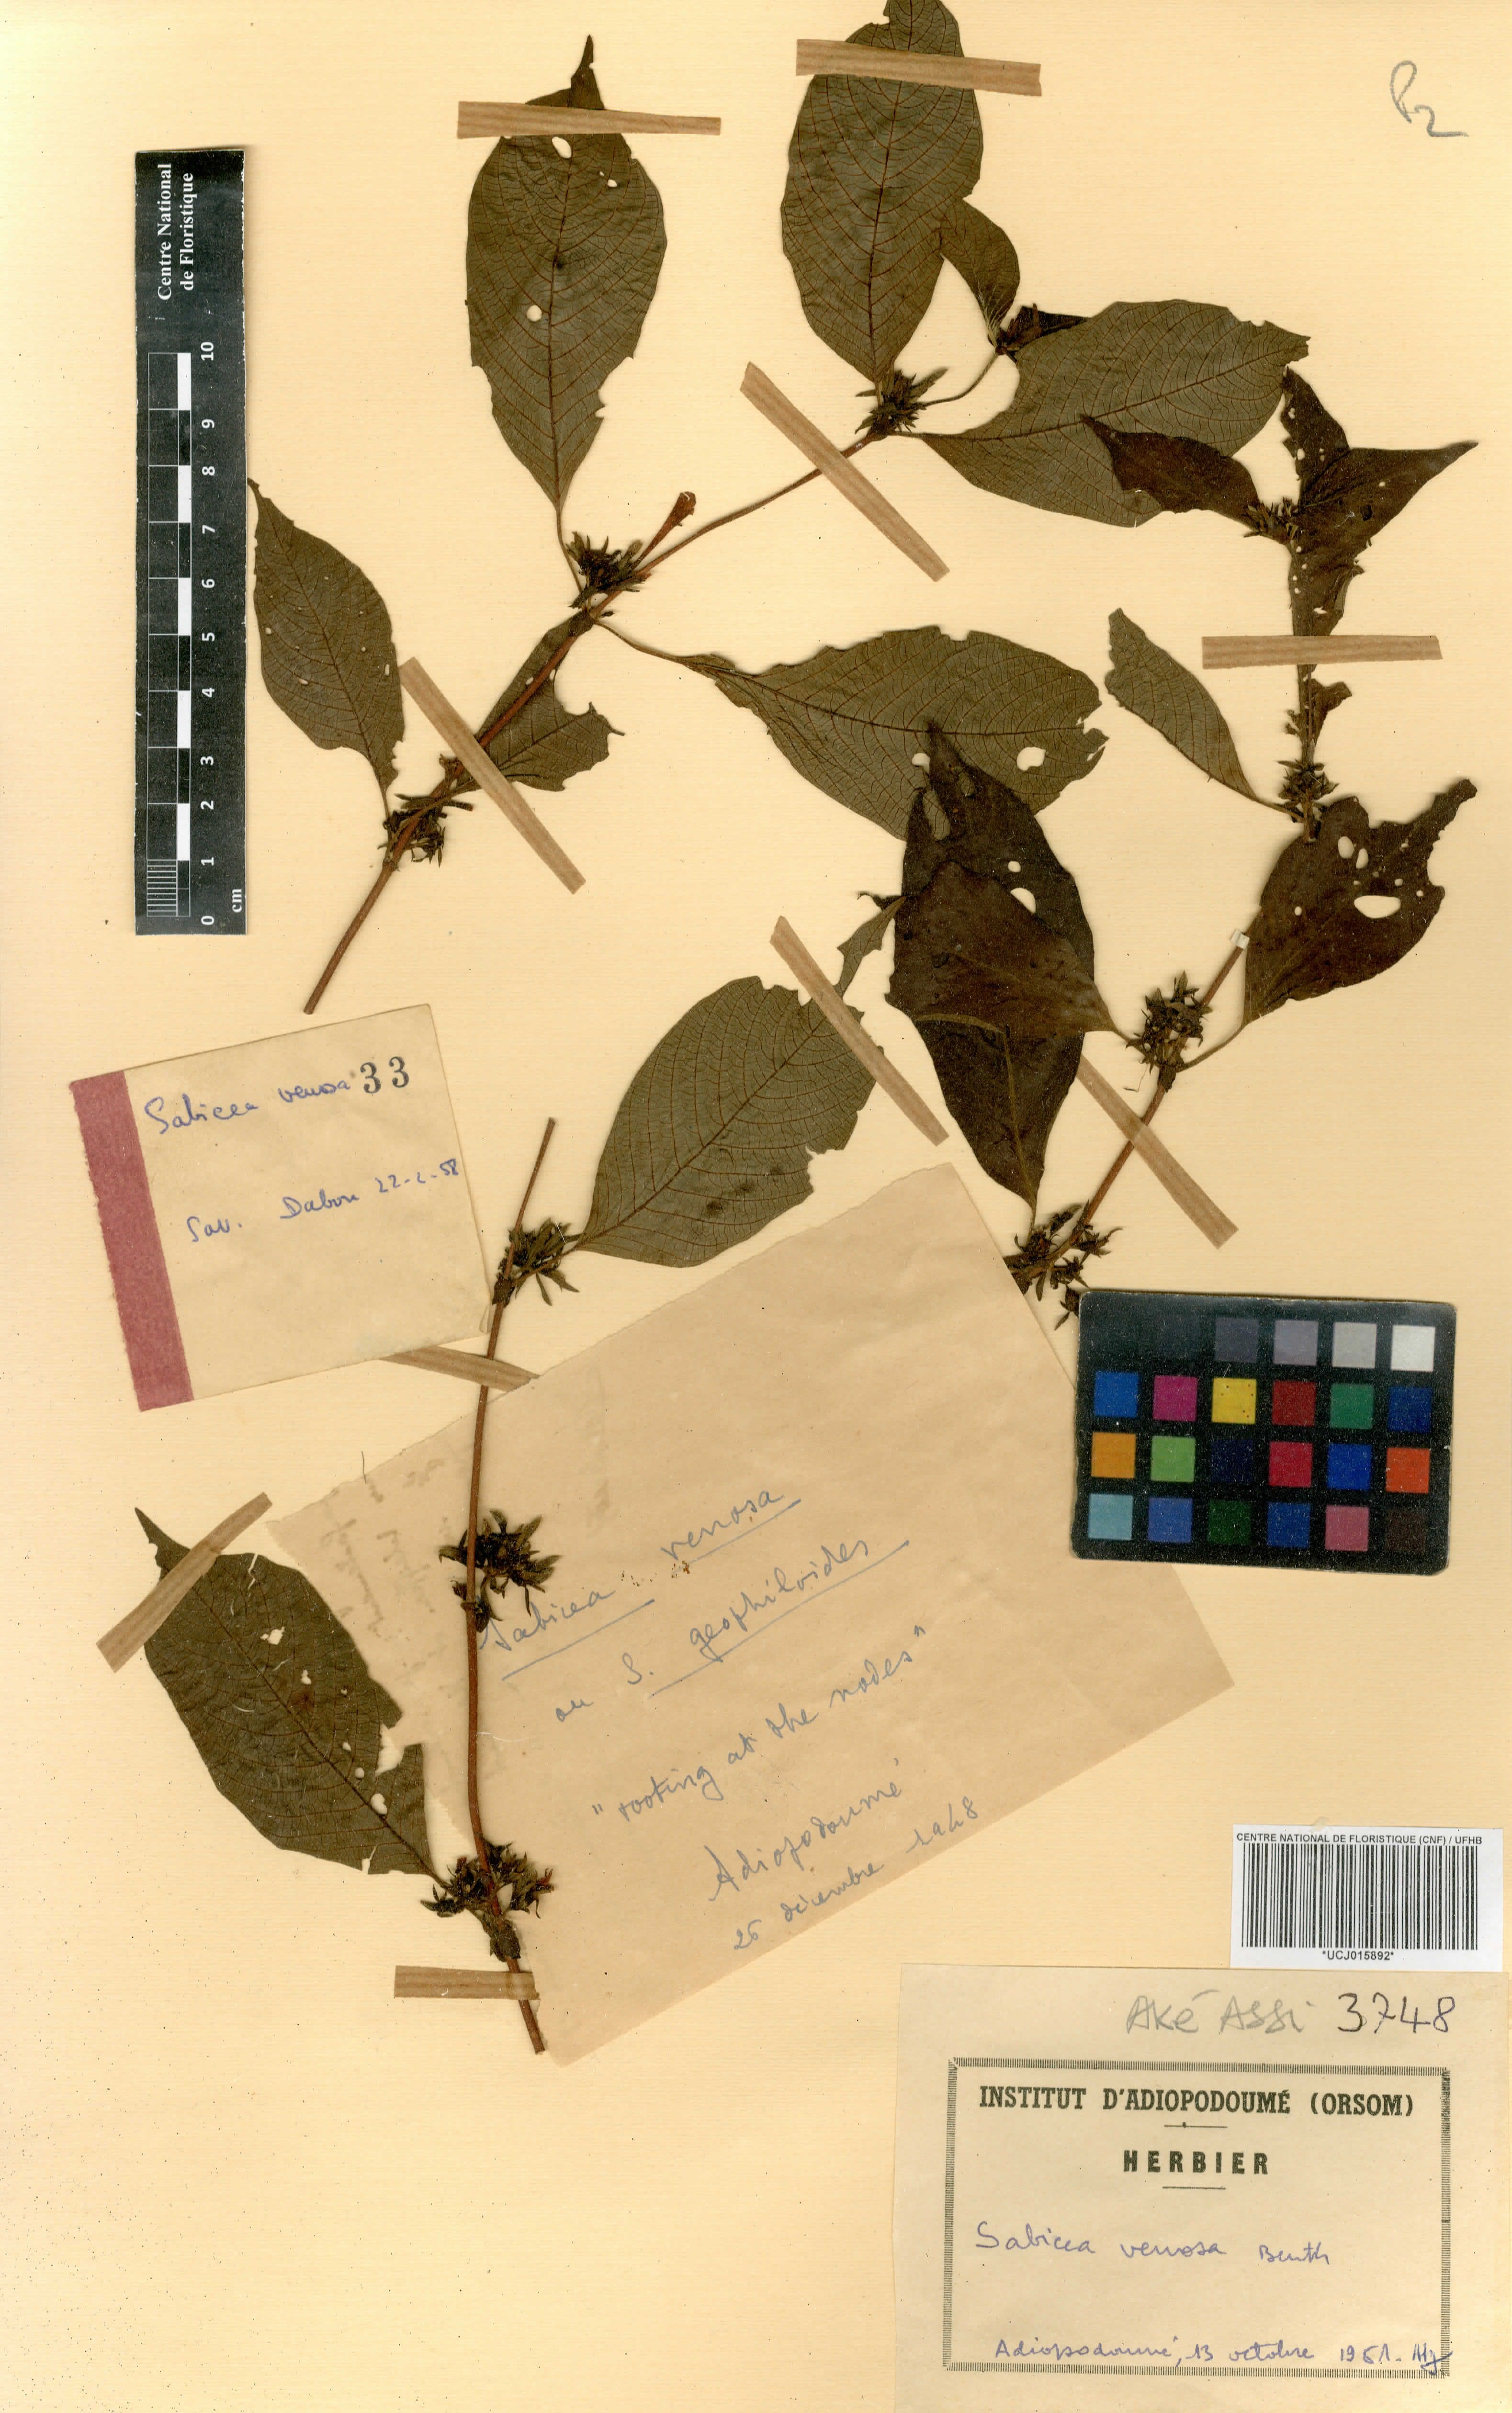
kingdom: Plantae
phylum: Tracheophyta
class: Magnoliopsida
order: Gentianales
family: Rubiaceae
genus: Sabicea
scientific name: Sabicea venosa
